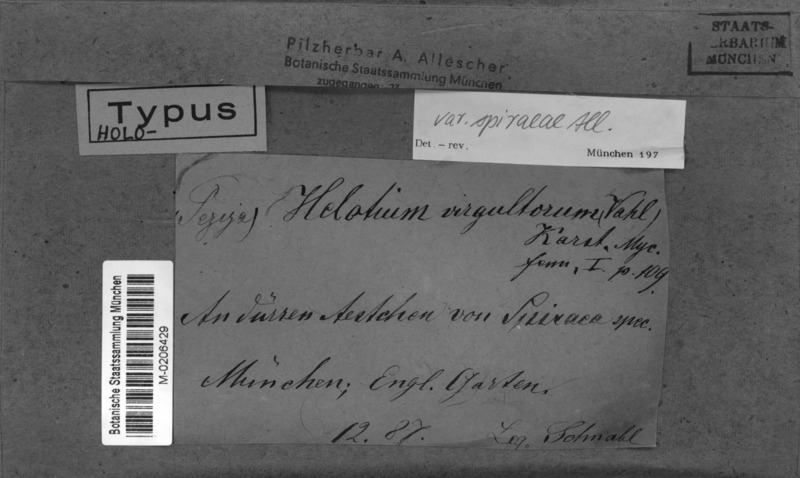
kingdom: Fungi
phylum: Ascomycota
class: Leotiomycetes
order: Helotiales
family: Helotiaceae
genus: Hymenoscyphus
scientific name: Hymenoscyphus calyculus
